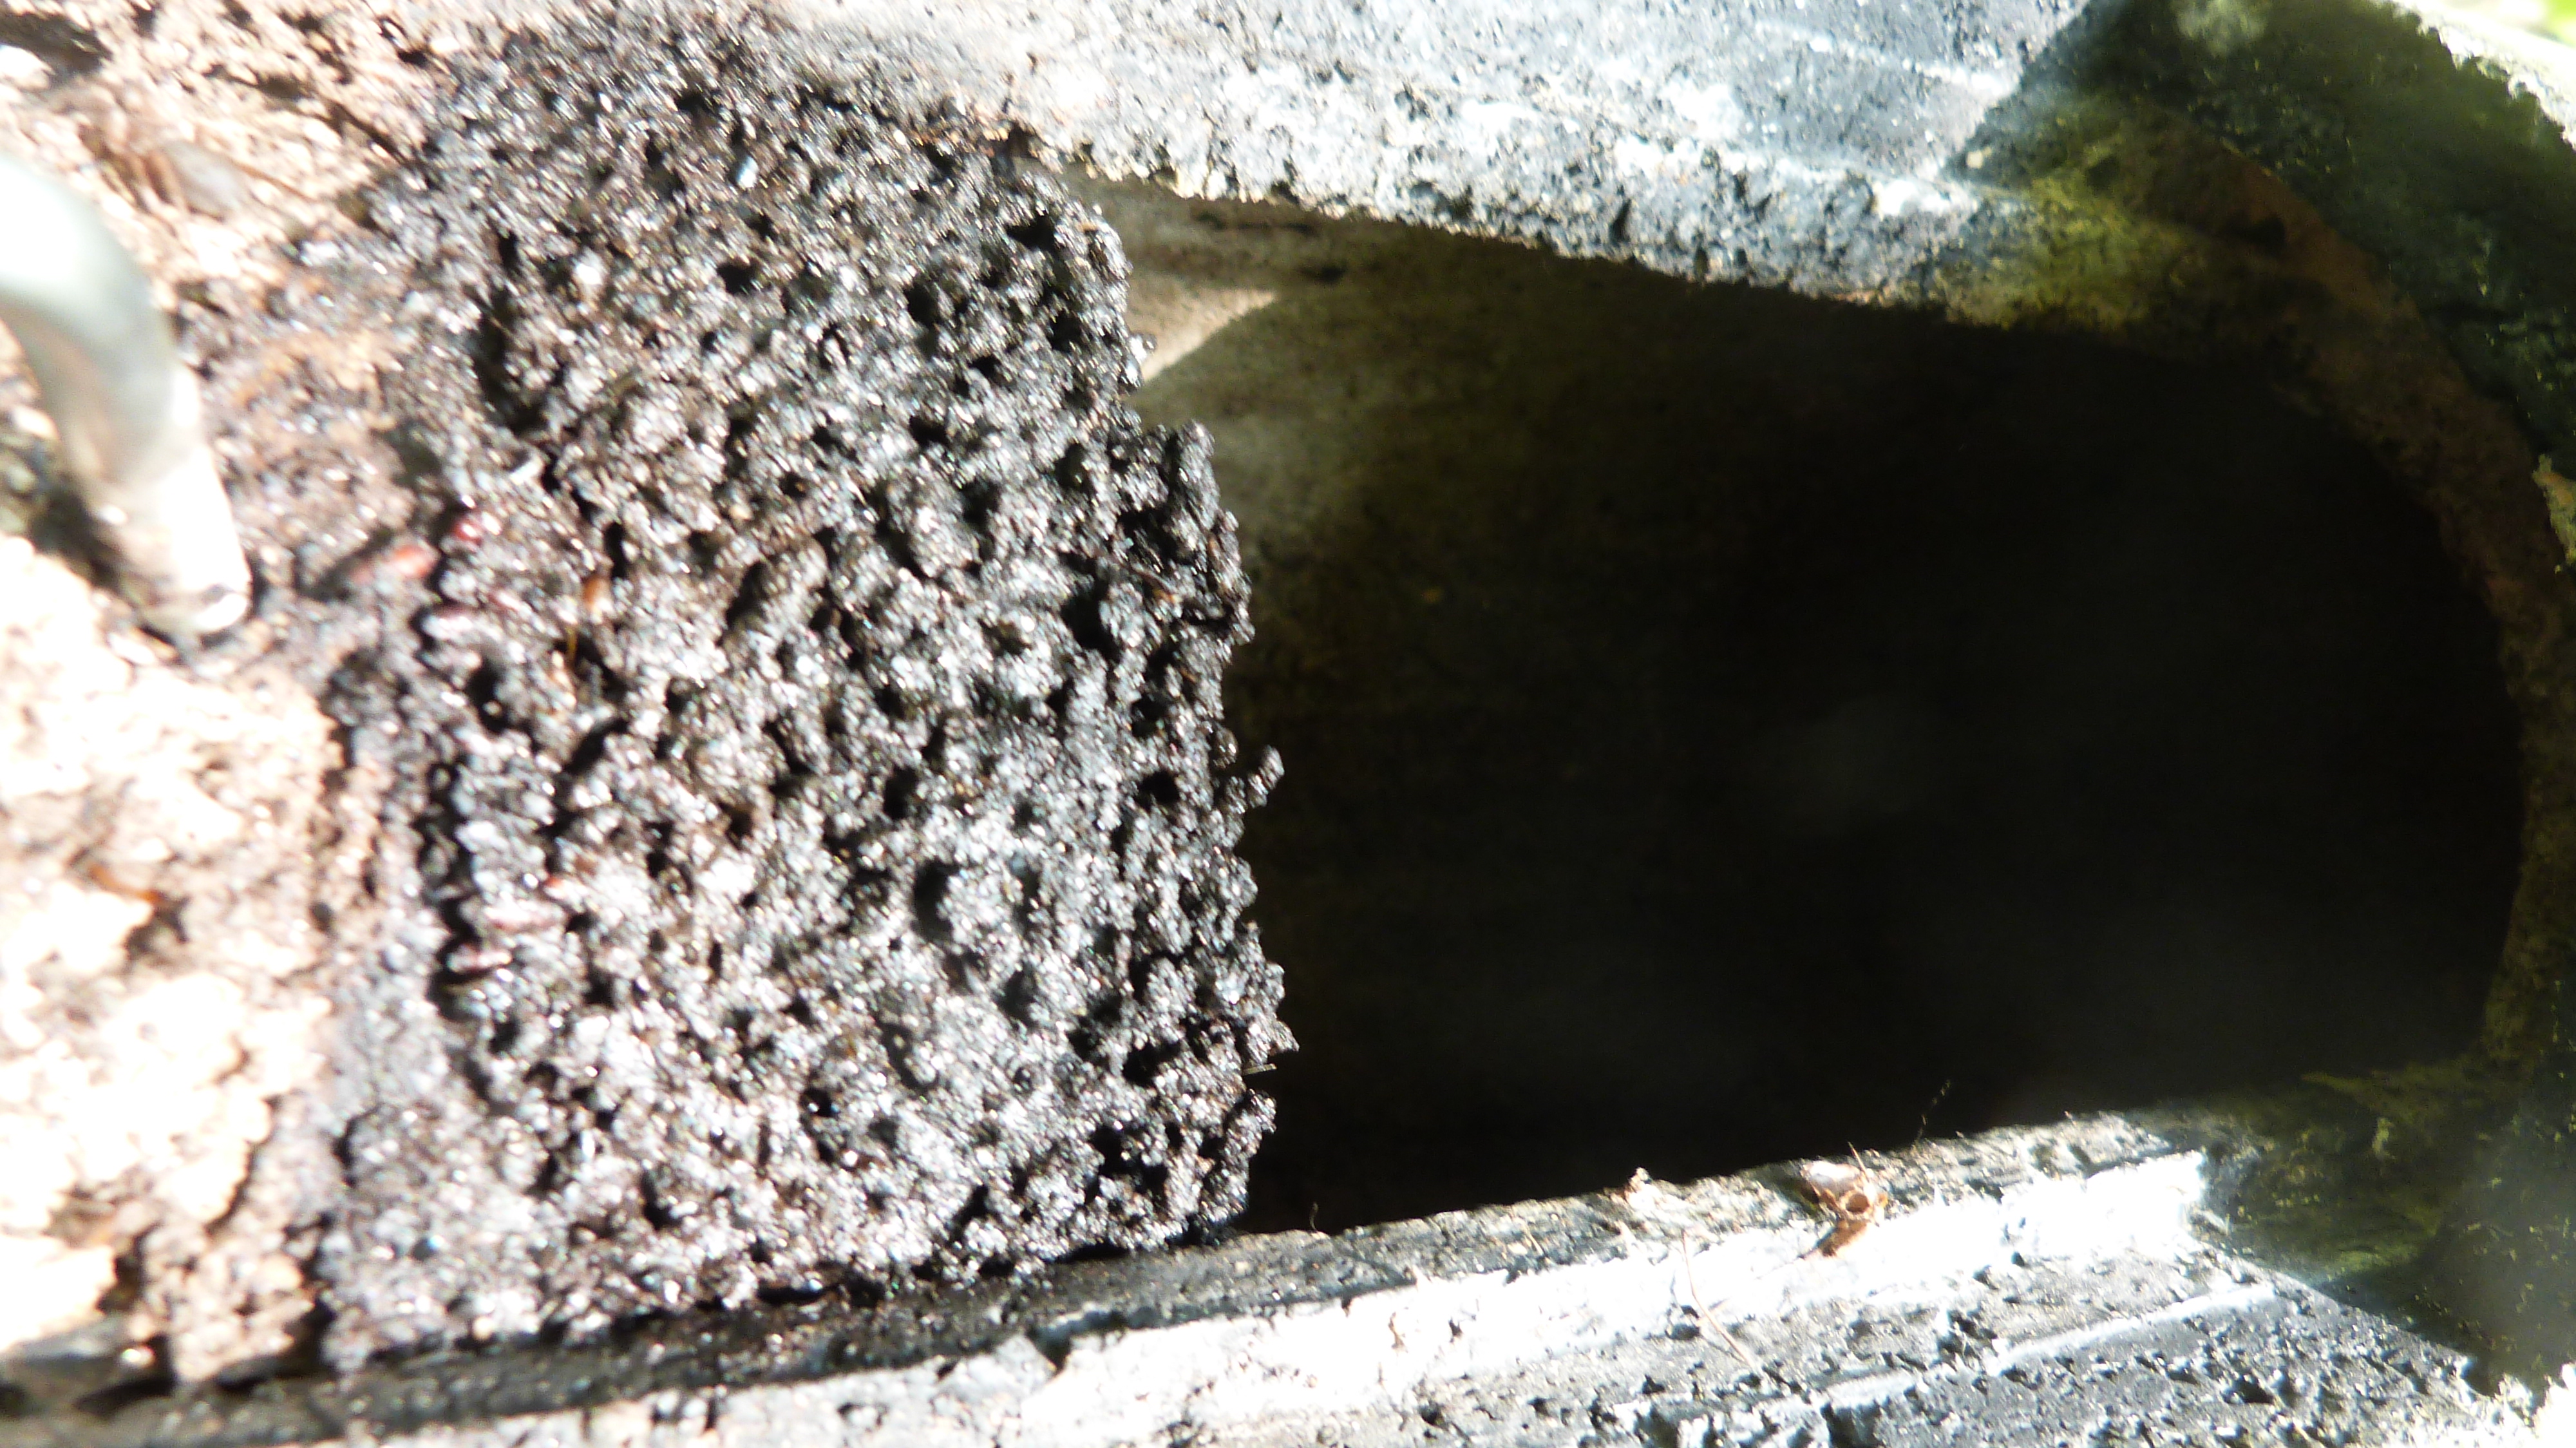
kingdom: Animalia
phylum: Chordata
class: Mammalia
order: Chiroptera
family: Vespertilionidae
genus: Myotis
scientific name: Myotis nattereri
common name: Natterer's bat
